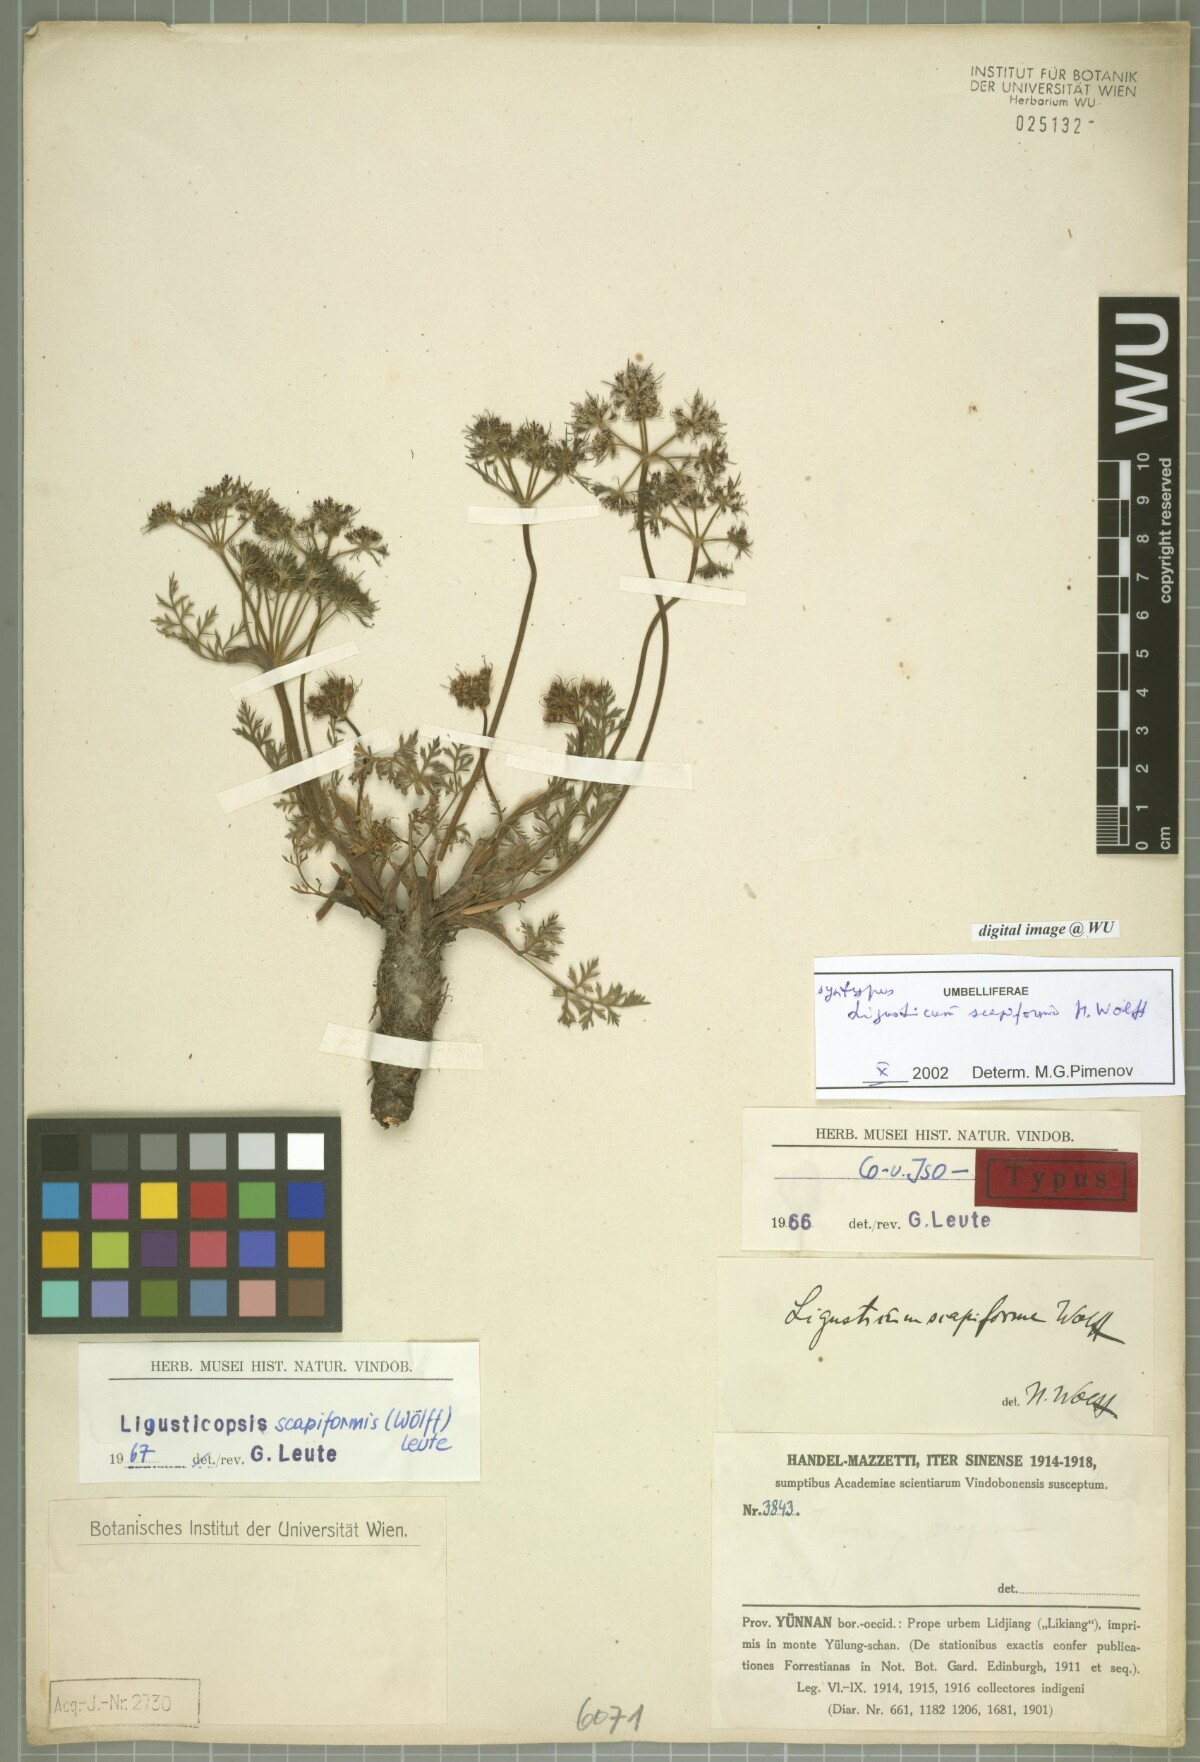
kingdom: Plantae
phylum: Tracheophyta
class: Magnoliopsida
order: Apiales
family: Apiaceae
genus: Ligusticopsis
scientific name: Ligusticopsis scapiformis
